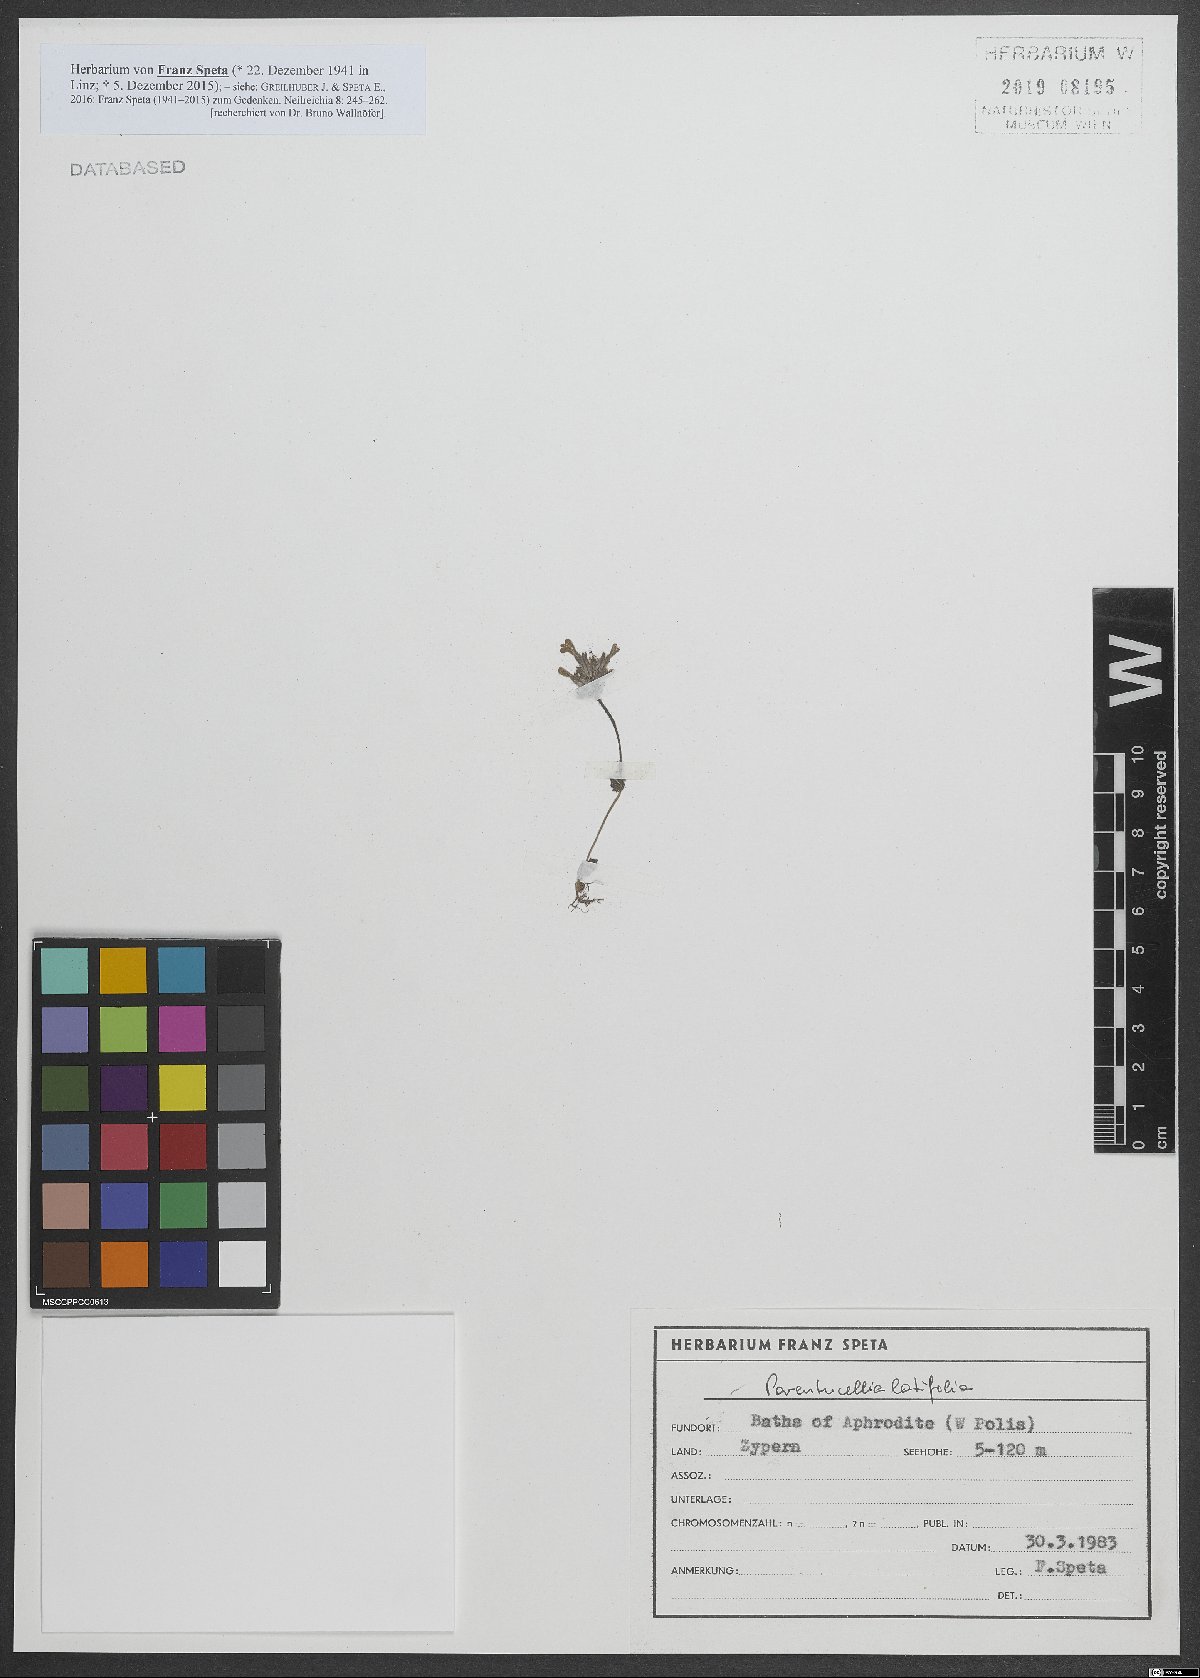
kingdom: Plantae
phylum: Tracheophyta
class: Magnoliopsida
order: Lamiales
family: Orobanchaceae
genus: Parentucellia
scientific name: Parentucellia latifolia
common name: Broadleaf glandweed
